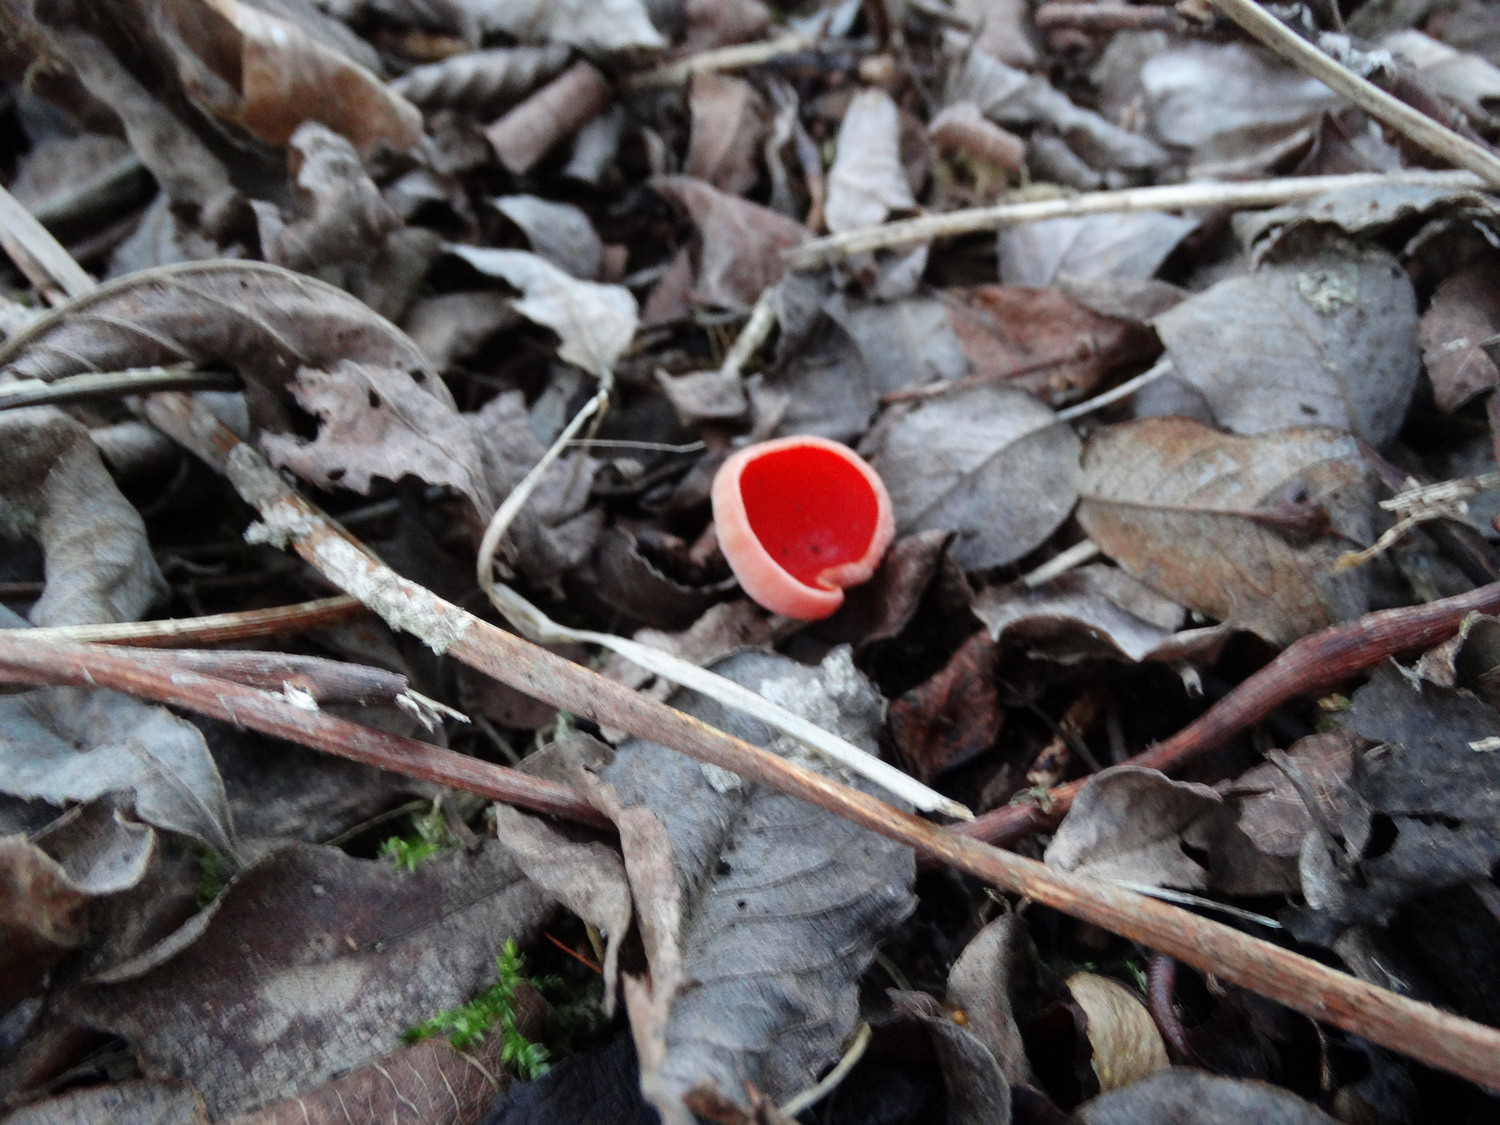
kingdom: Fungi
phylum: Ascomycota
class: Pezizomycetes
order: Pezizales
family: Sarcoscyphaceae
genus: Sarcoscypha
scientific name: Sarcoscypha austriaca
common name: krølhåret pragtbæger
